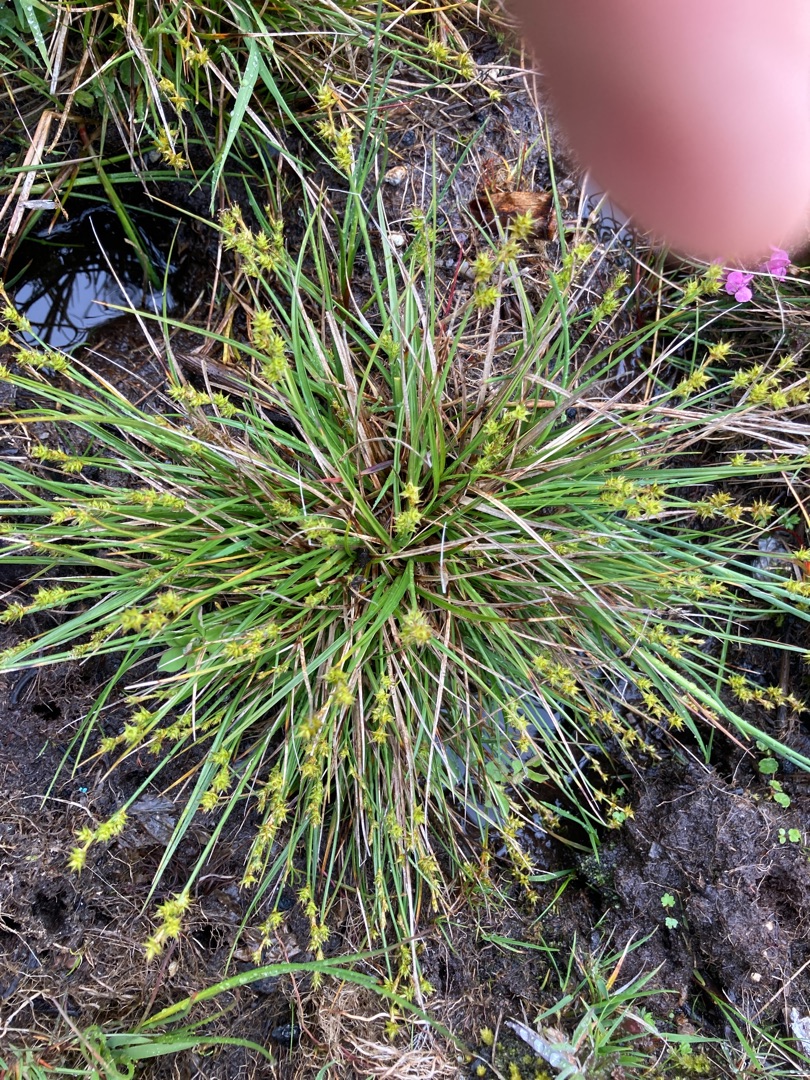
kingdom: Plantae
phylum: Tracheophyta
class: Liliopsida
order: Poales
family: Cyperaceae
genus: Carex
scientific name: Carex echinata
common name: Stjerne-star
